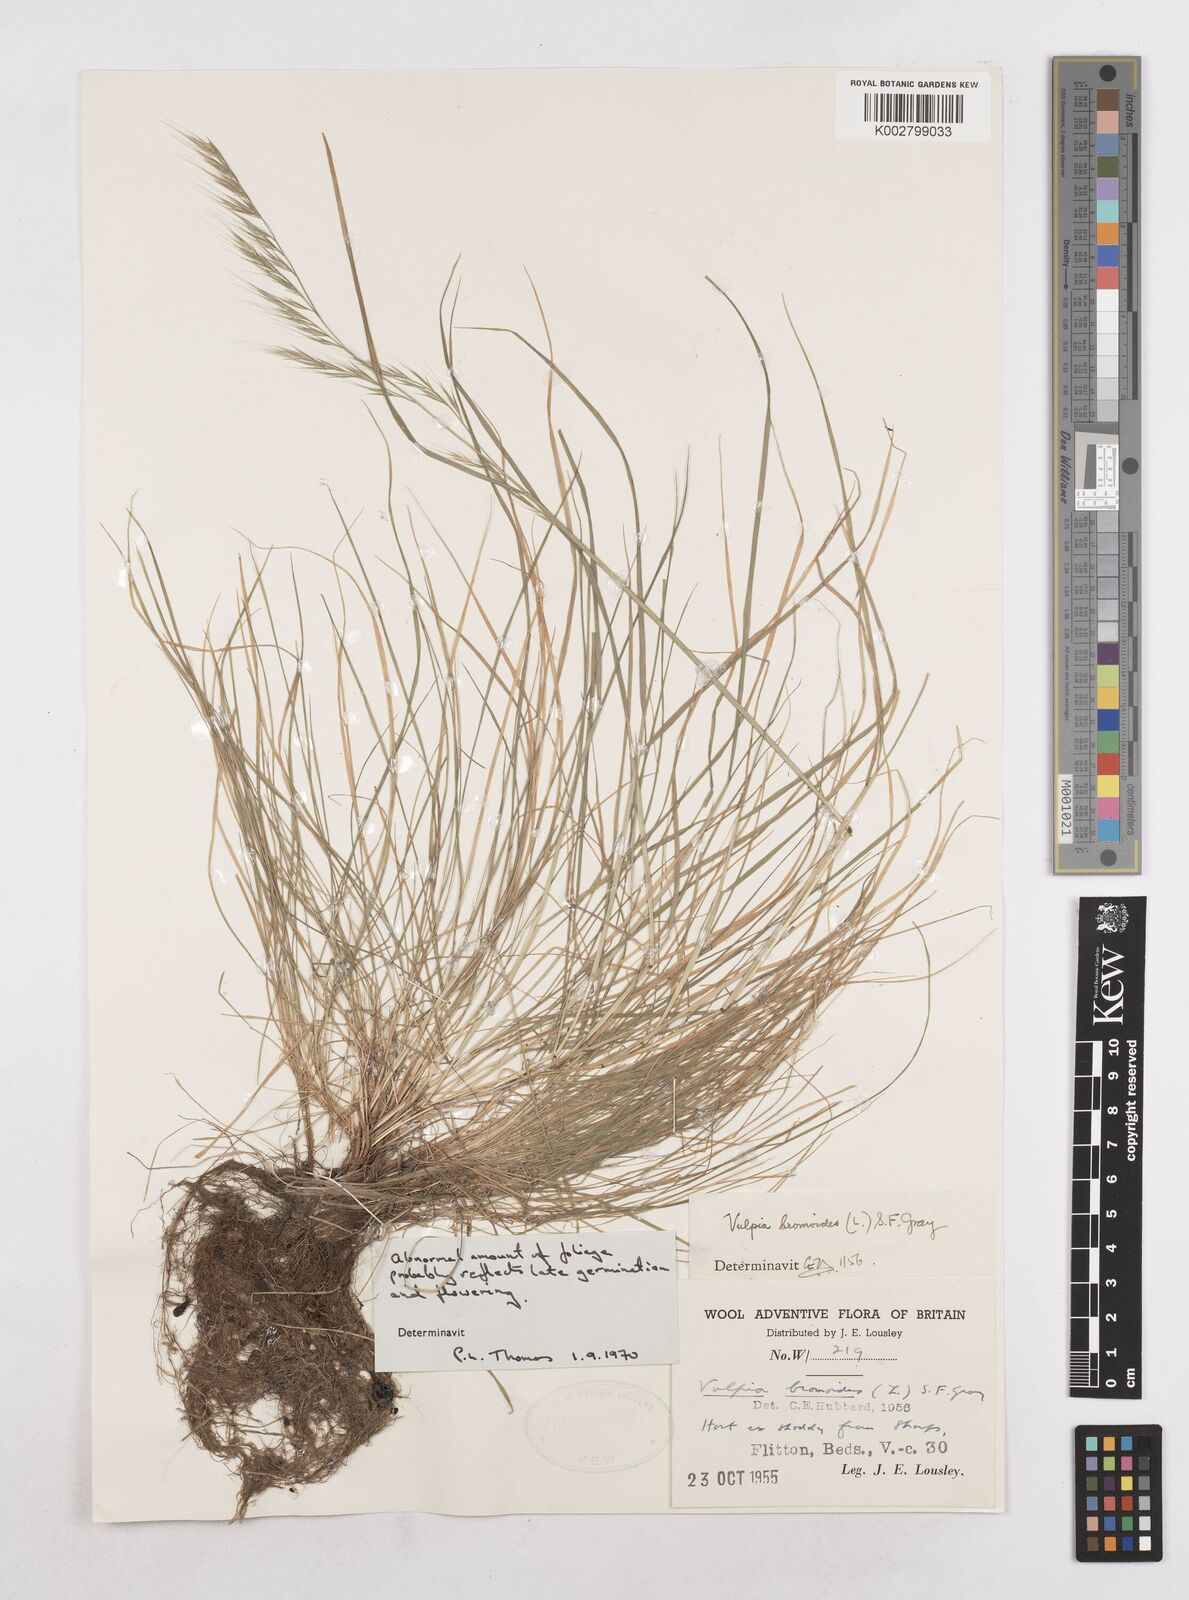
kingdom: Plantae
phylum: Tracheophyta
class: Liliopsida
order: Poales
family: Poaceae
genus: Festuca
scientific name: Festuca bromoides
